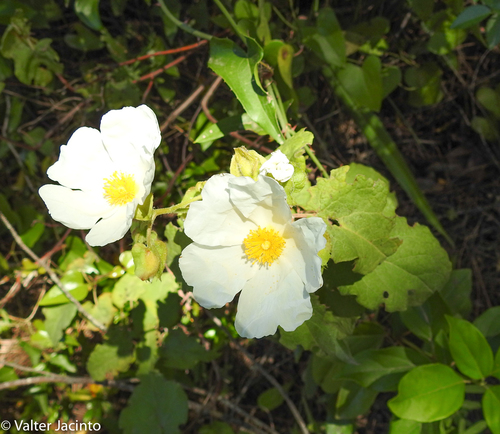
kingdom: Plantae
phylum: Tracheophyta
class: Magnoliopsida
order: Malvales
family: Cistaceae
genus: Cistus
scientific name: Cistus populifolius
